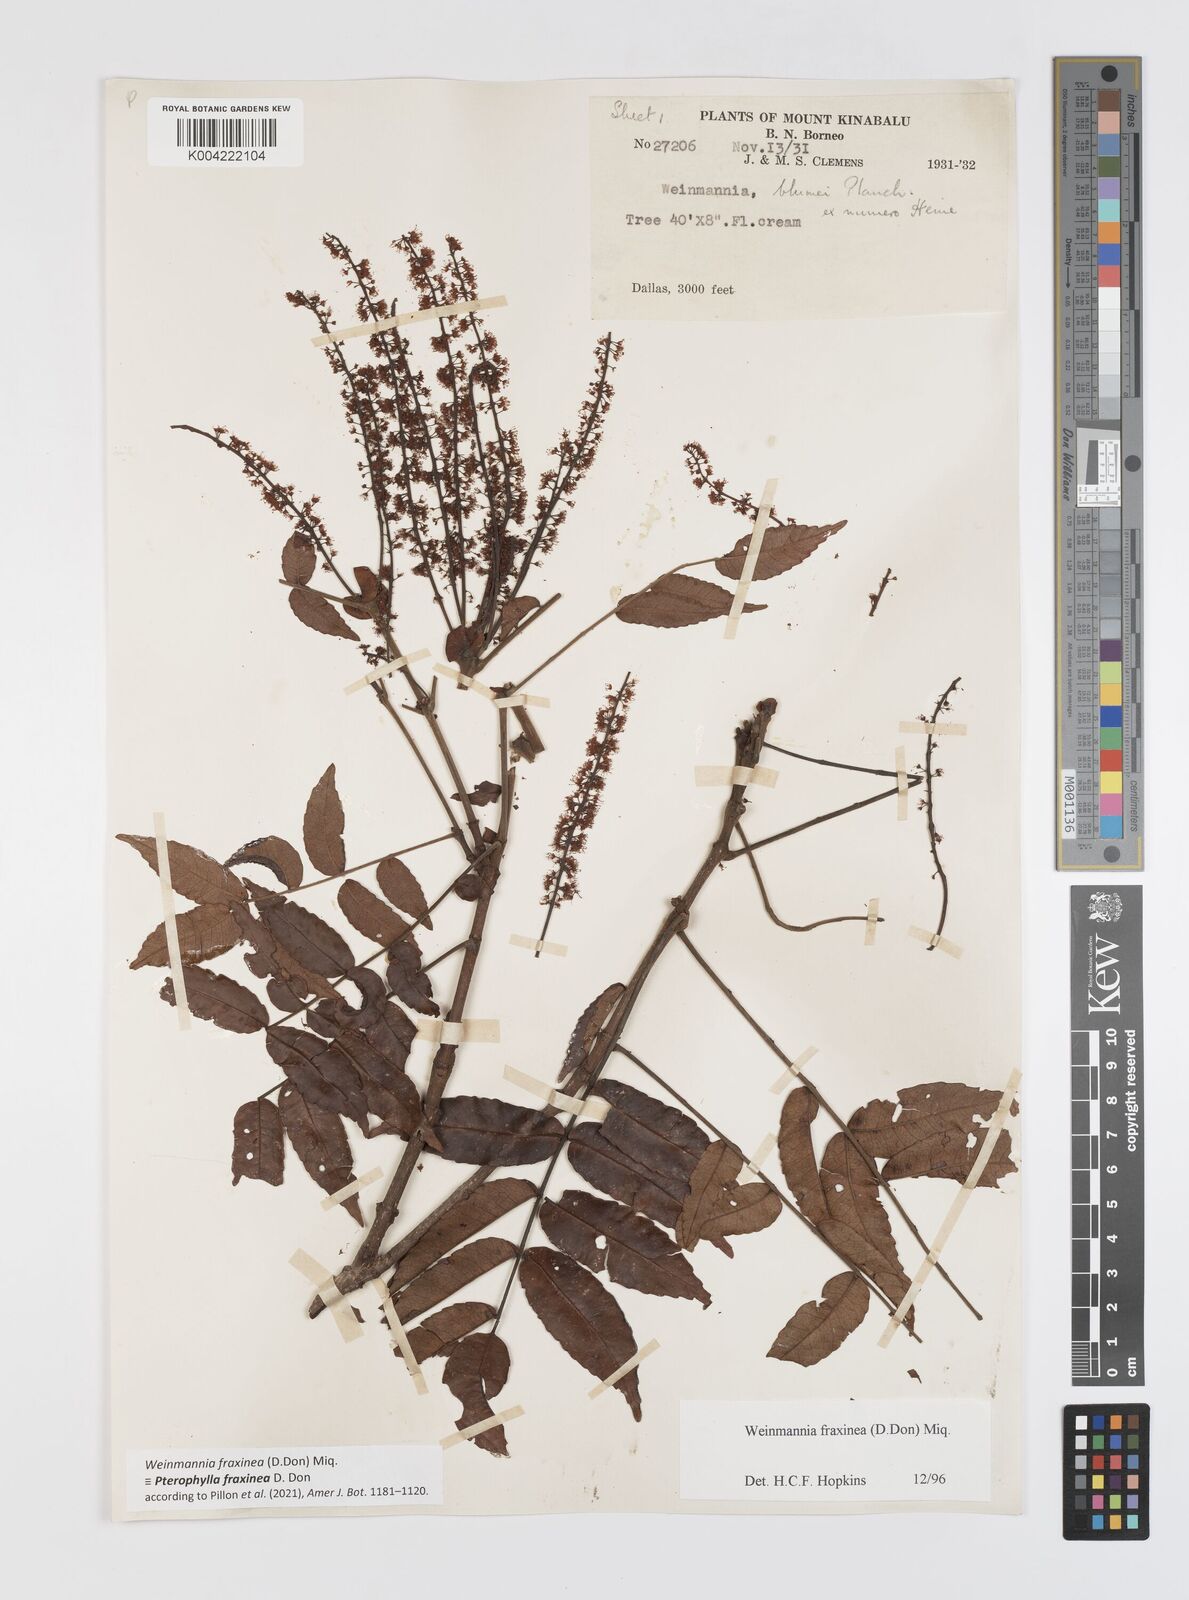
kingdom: Plantae
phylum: Tracheophyta
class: Magnoliopsida
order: Oxalidales
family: Cunoniaceae
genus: Pterophylla
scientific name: Pterophylla fraxinea
